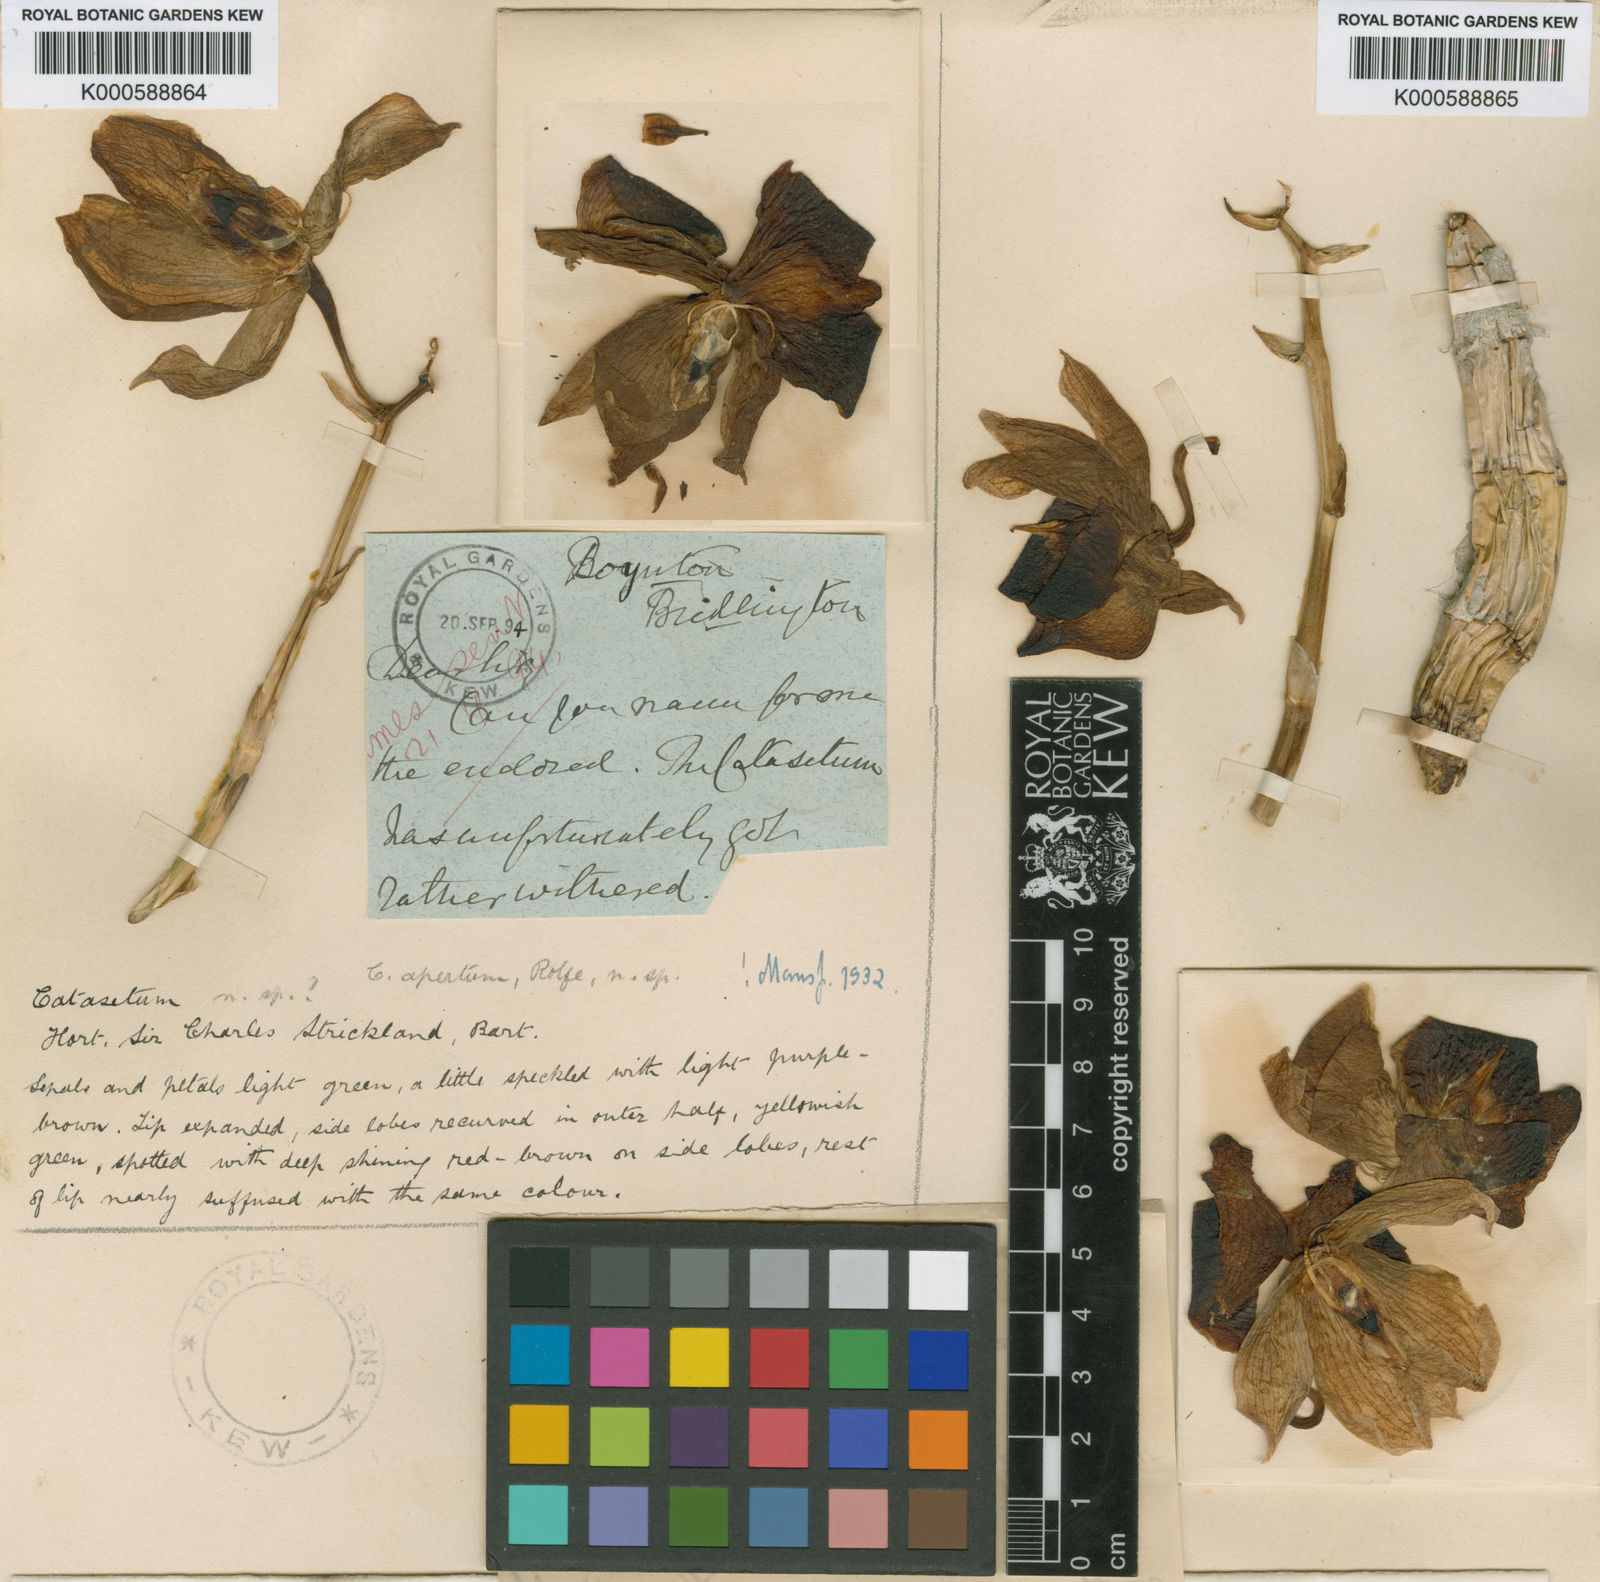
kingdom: Plantae
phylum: Tracheophyta
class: Liliopsida
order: Asparagales
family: Orchidaceae
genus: Catasetum
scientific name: Catasetum tapiriceps
